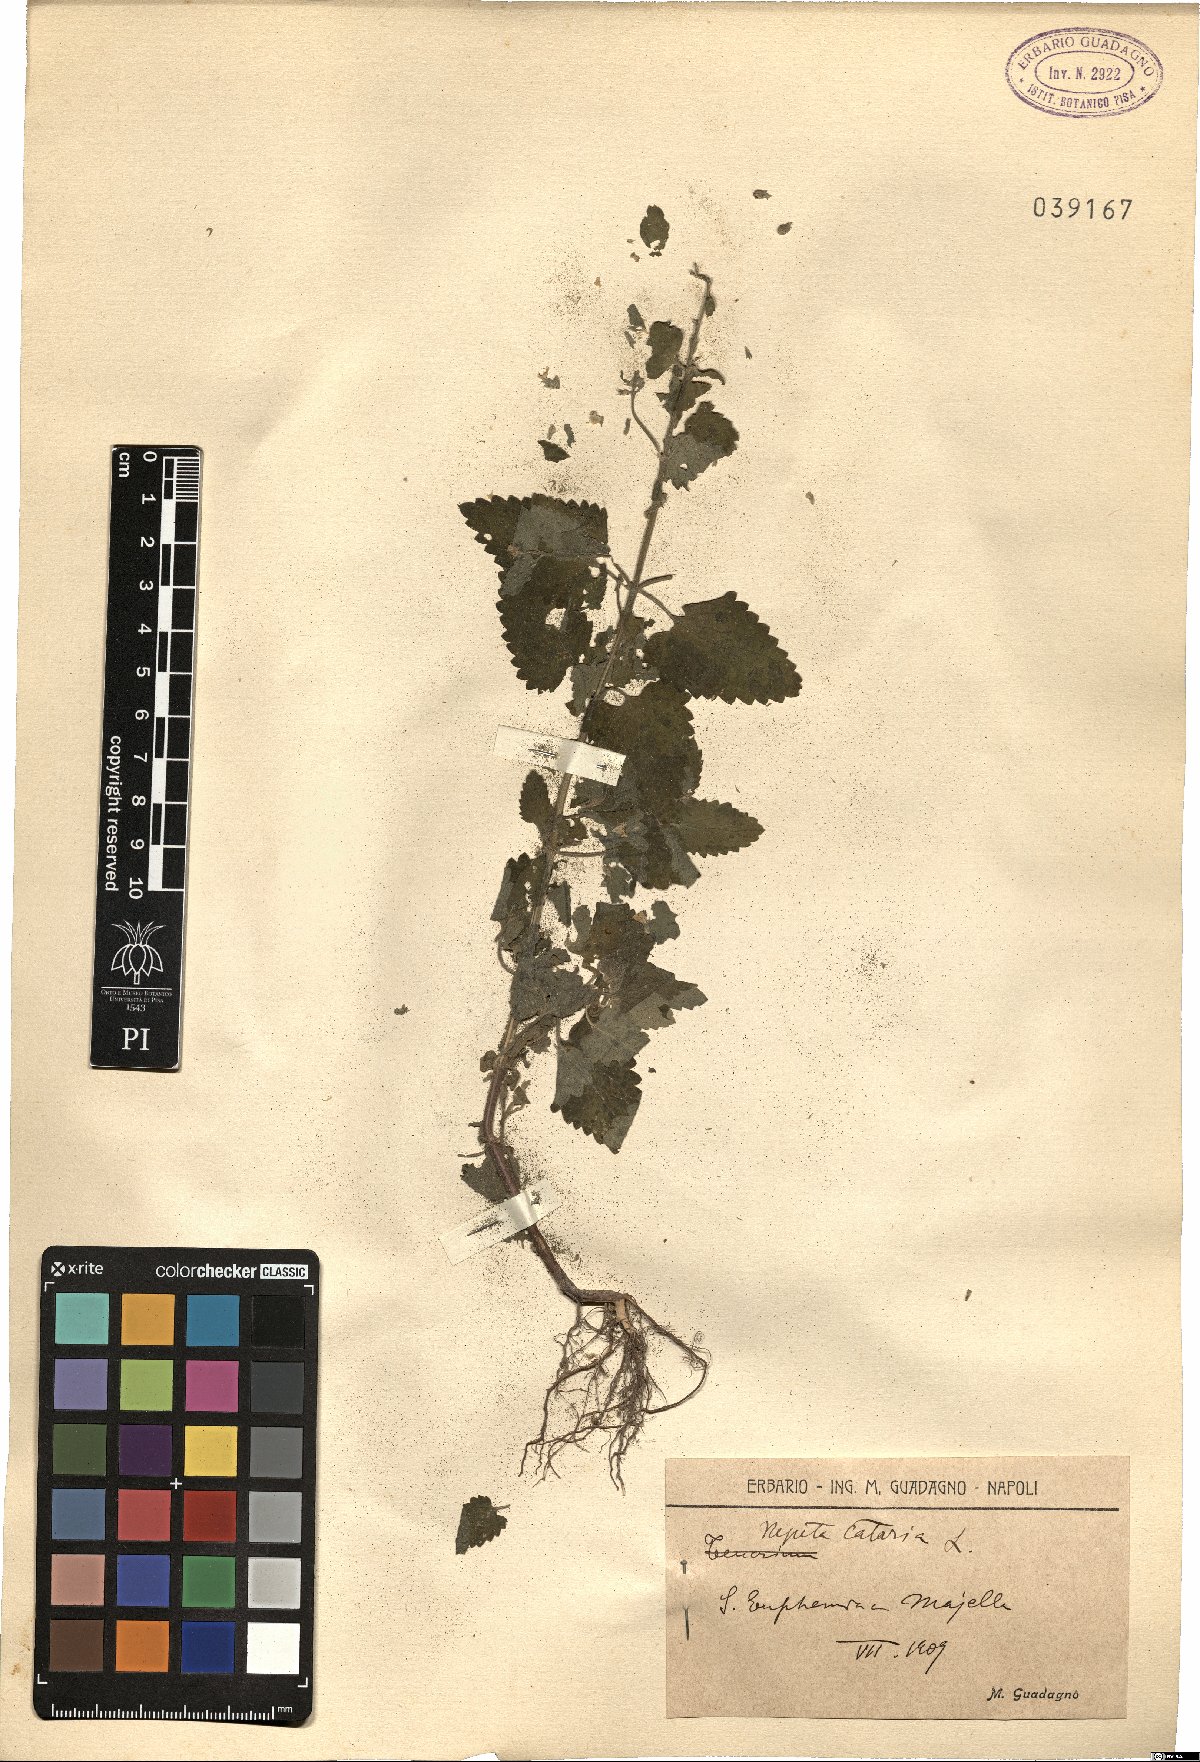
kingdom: Plantae
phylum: Tracheophyta
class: Magnoliopsida
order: Lamiales
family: Lamiaceae
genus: Nepeta
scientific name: Nepeta cataria
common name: Catnip
